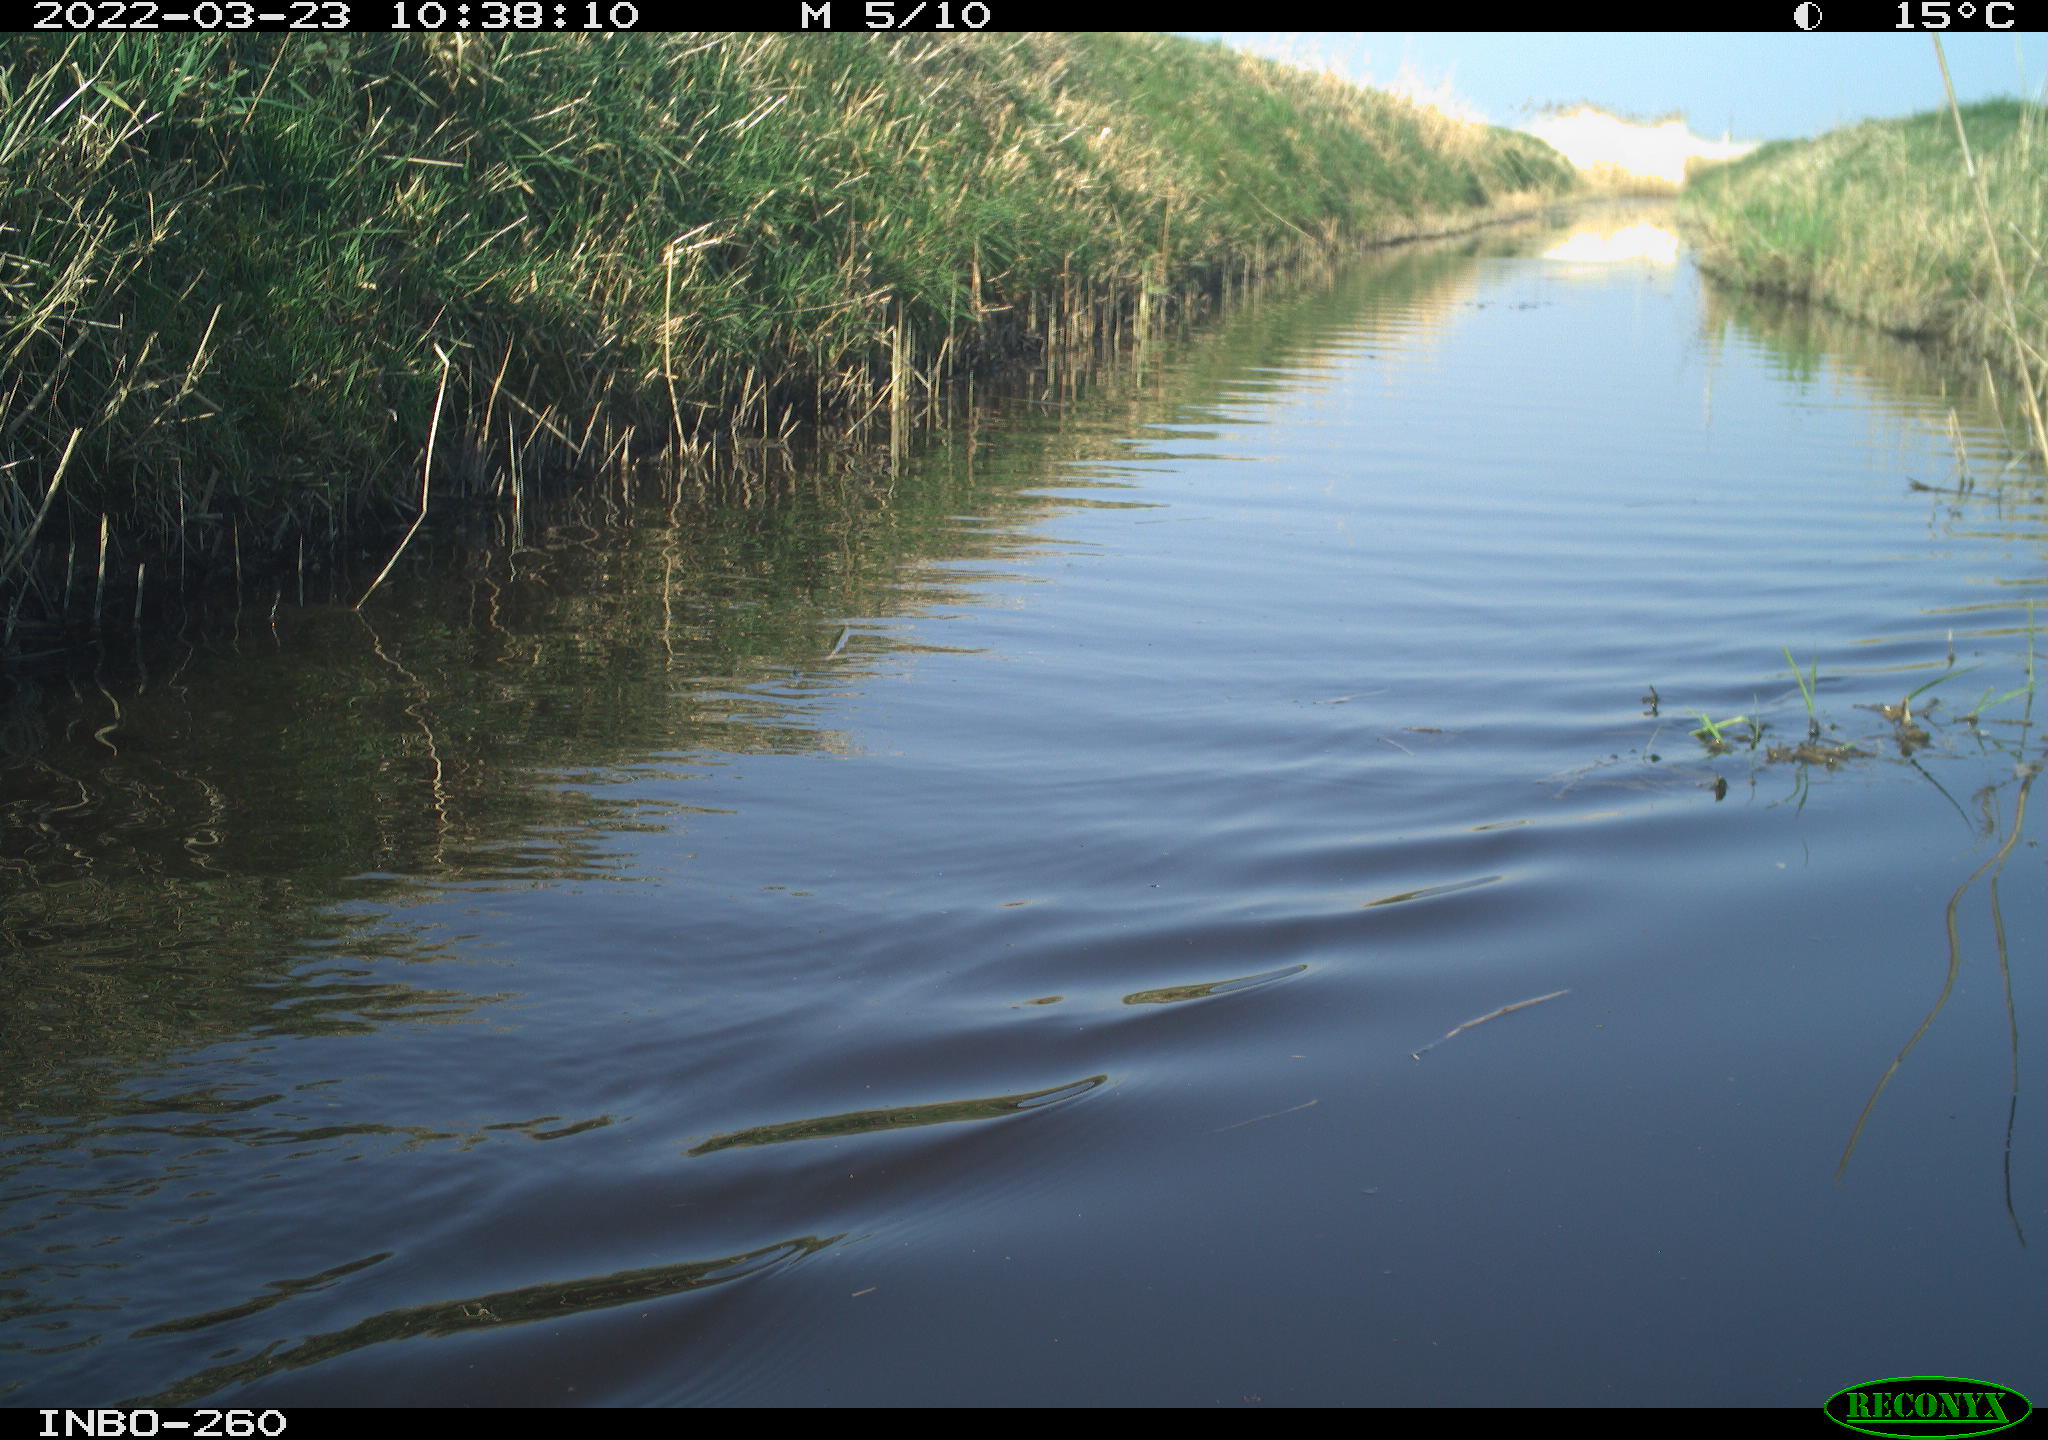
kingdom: Animalia
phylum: Chordata
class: Aves
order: Gruiformes
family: Rallidae
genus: Fulica
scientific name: Fulica atra
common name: Eurasian coot
